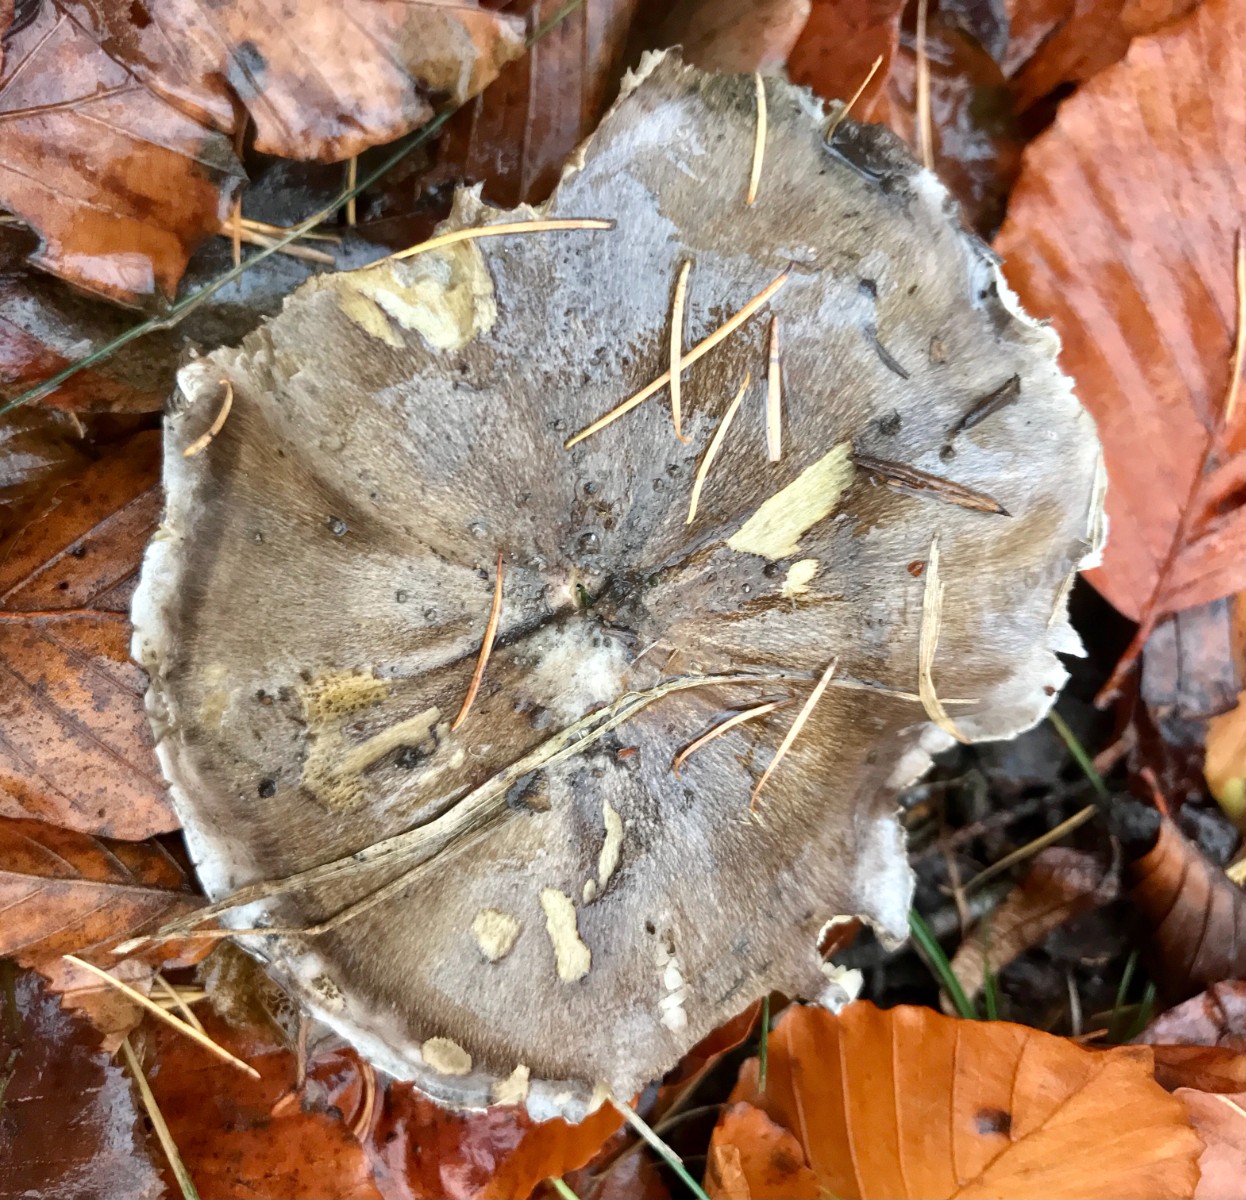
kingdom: Fungi
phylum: Basidiomycota
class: Agaricomycetes
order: Agaricales
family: Tricholomataceae
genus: Tricholoma
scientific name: Tricholoma portentosum
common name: grå ridderhat
